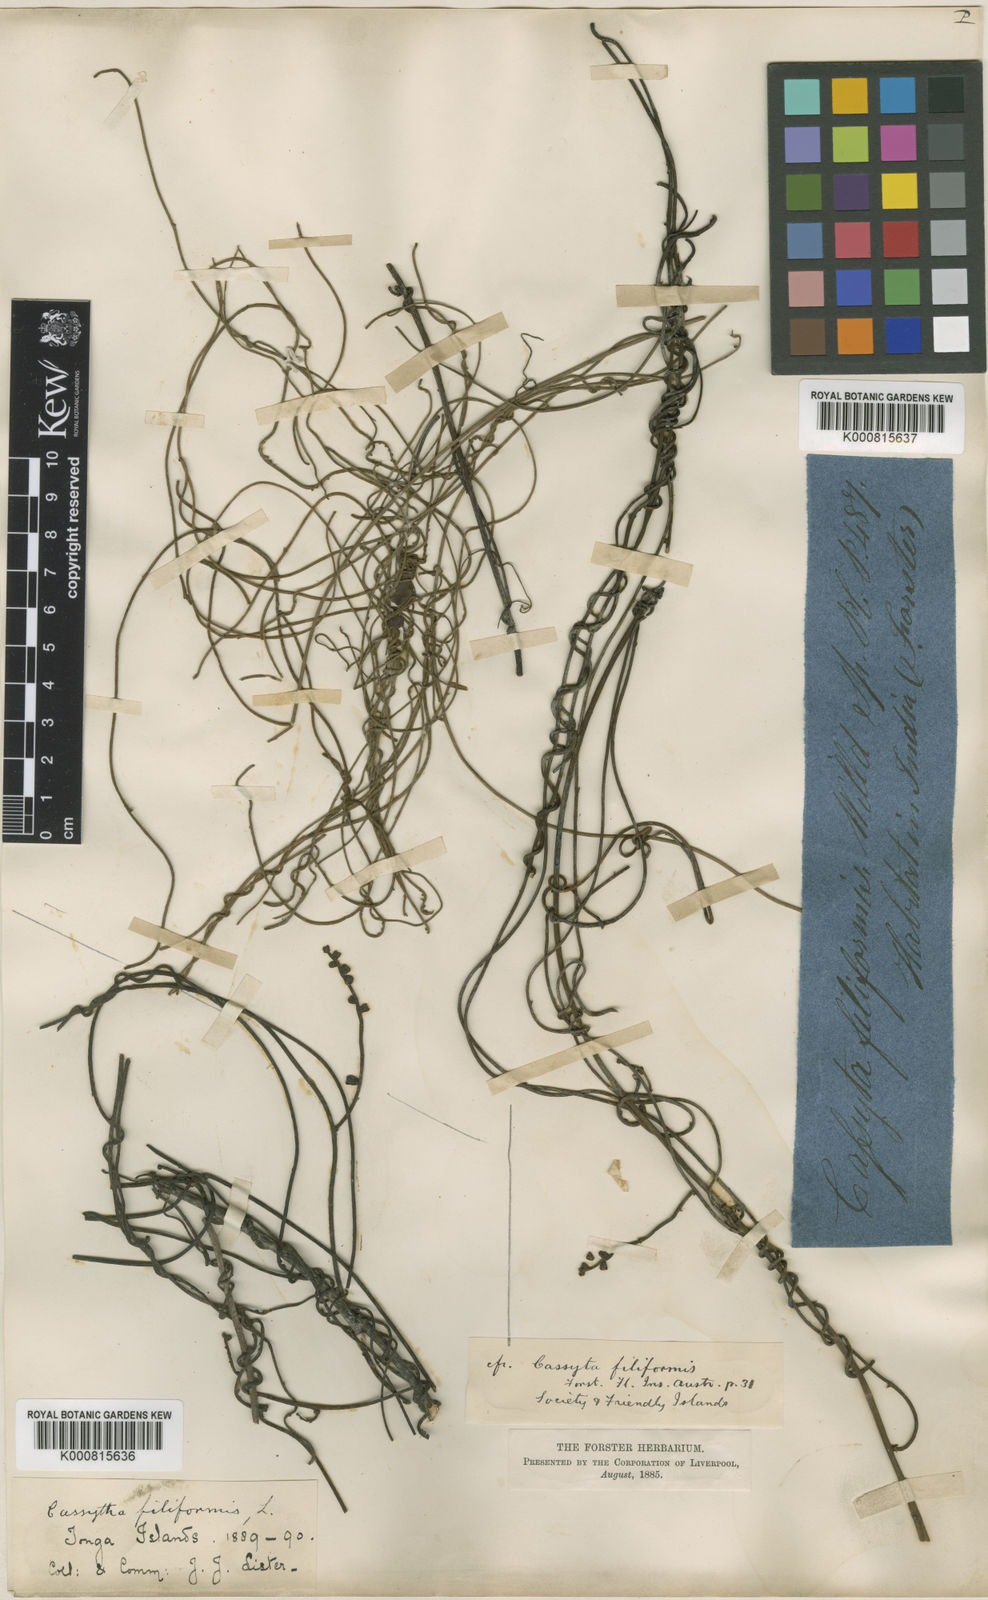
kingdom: Plantae
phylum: Tracheophyta
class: Magnoliopsida
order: Laurales
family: Lauraceae
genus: Cassytha
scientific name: Cassytha filiformis
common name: Dodder-laurel
